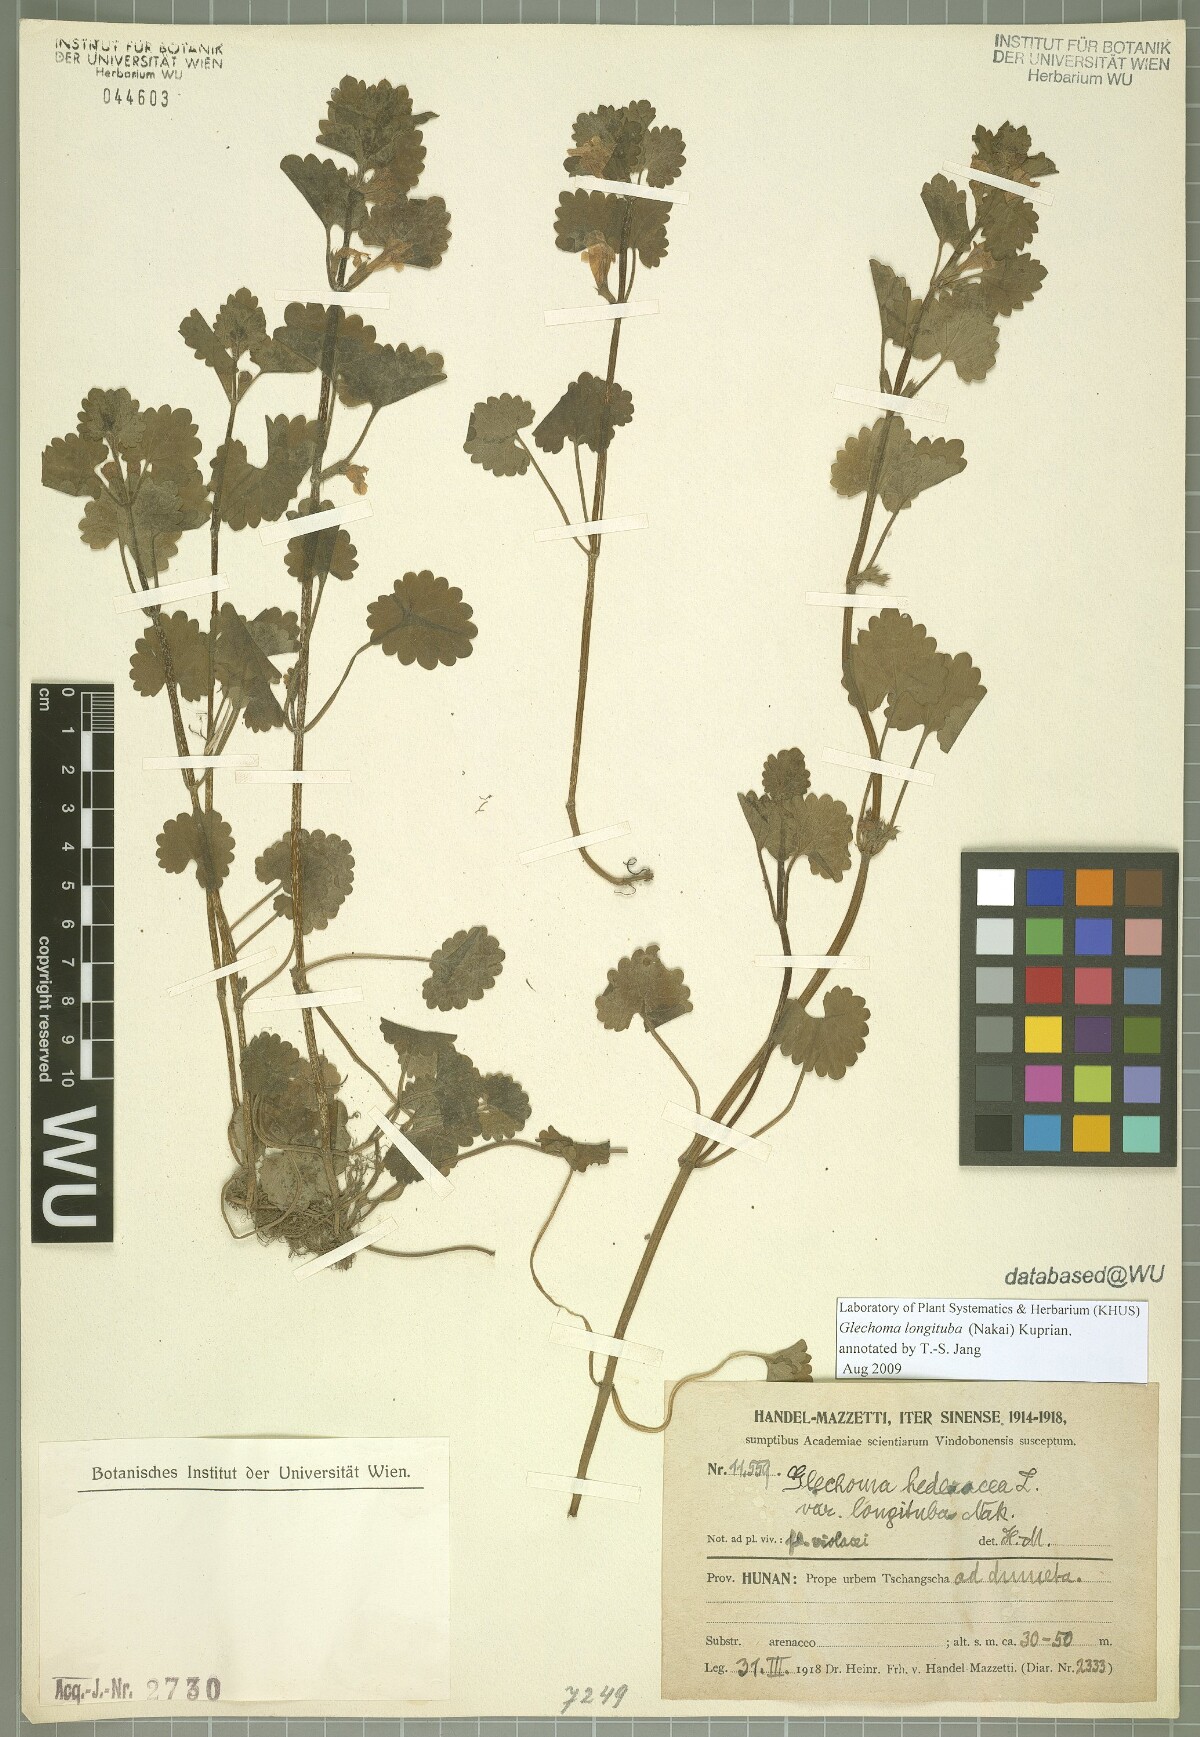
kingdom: Plantae
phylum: Tracheophyta
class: Magnoliopsida
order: Lamiales
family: Lamiaceae
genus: Glechoma
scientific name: Glechoma longituba
